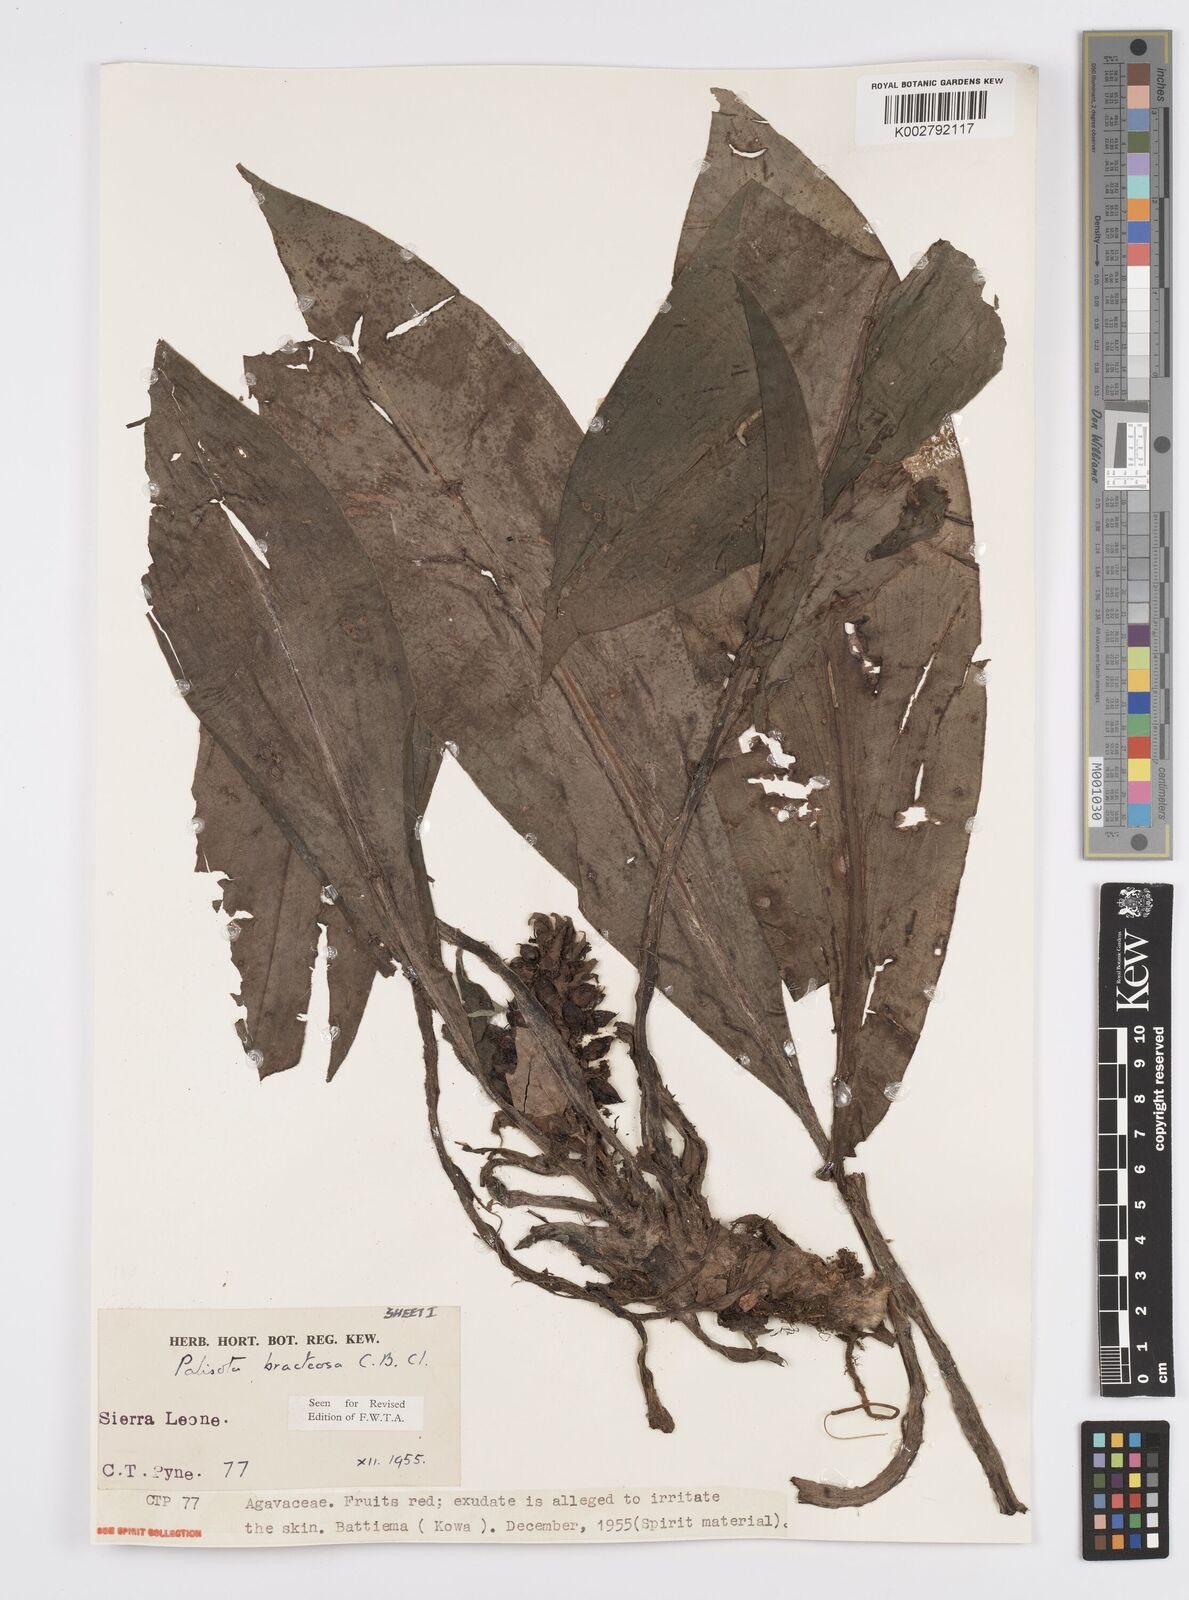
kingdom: Plantae
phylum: Tracheophyta
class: Liliopsida
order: Commelinales
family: Commelinaceae
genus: Palisota
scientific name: Palisota bracteosa
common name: Palisota
